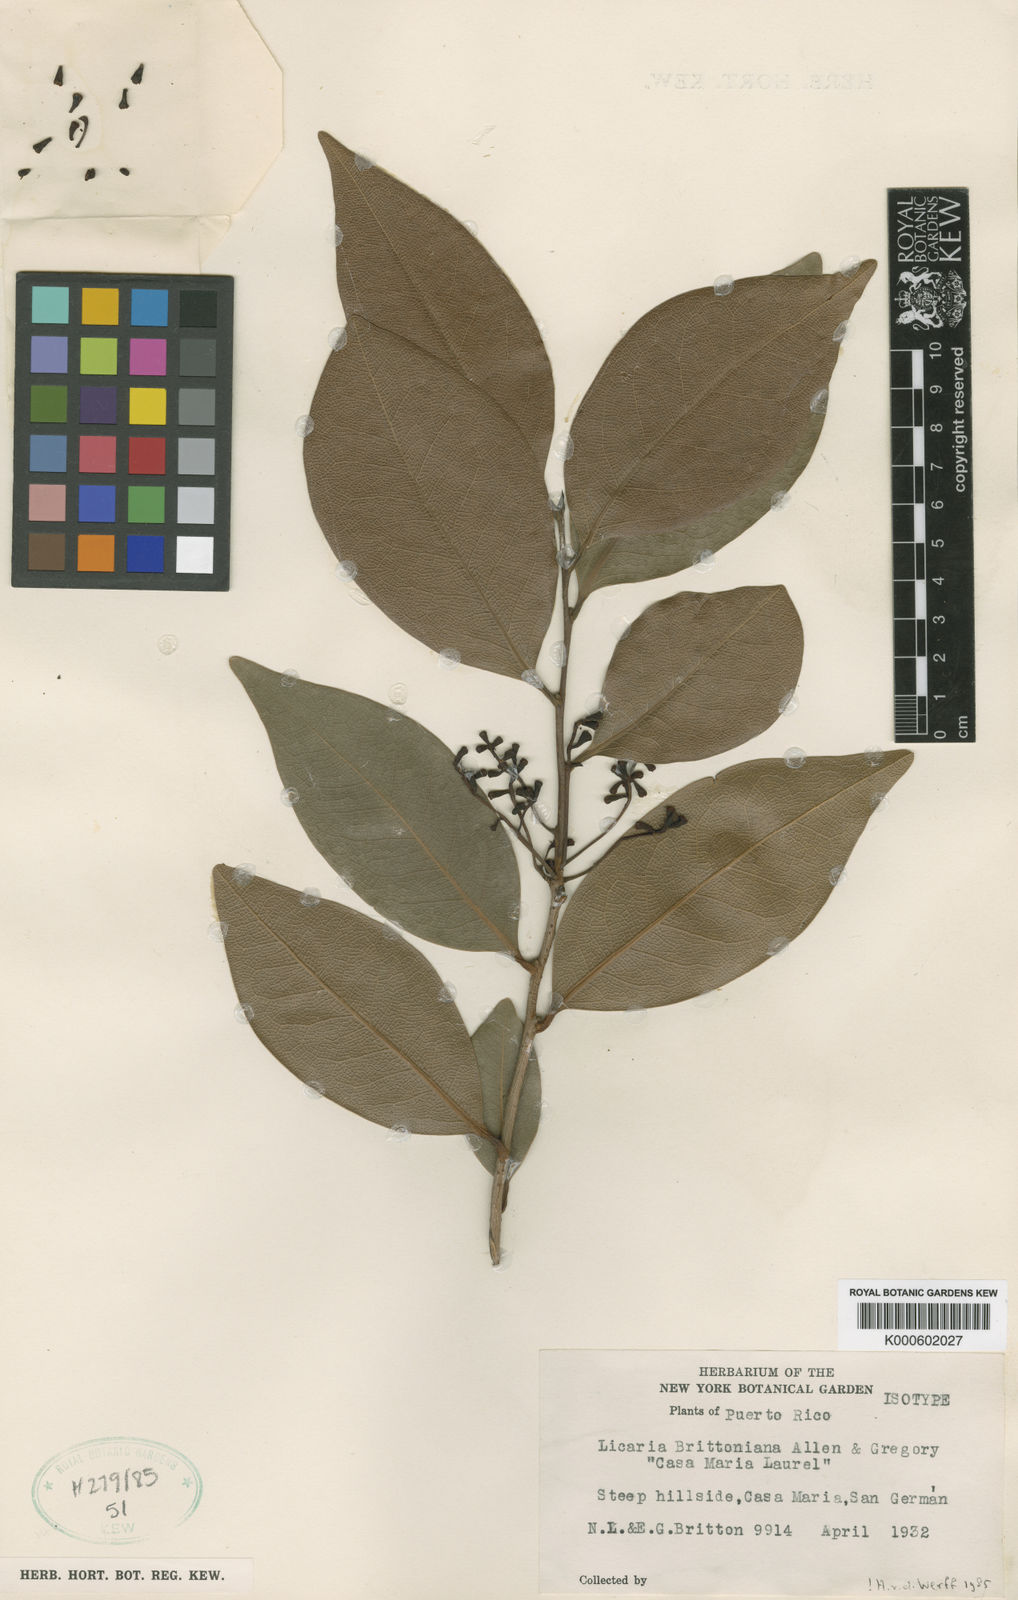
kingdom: Plantae
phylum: Tracheophyta
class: Magnoliopsida
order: Laurales
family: Lauraceae
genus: Licaria
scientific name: Licaria brittoniana
